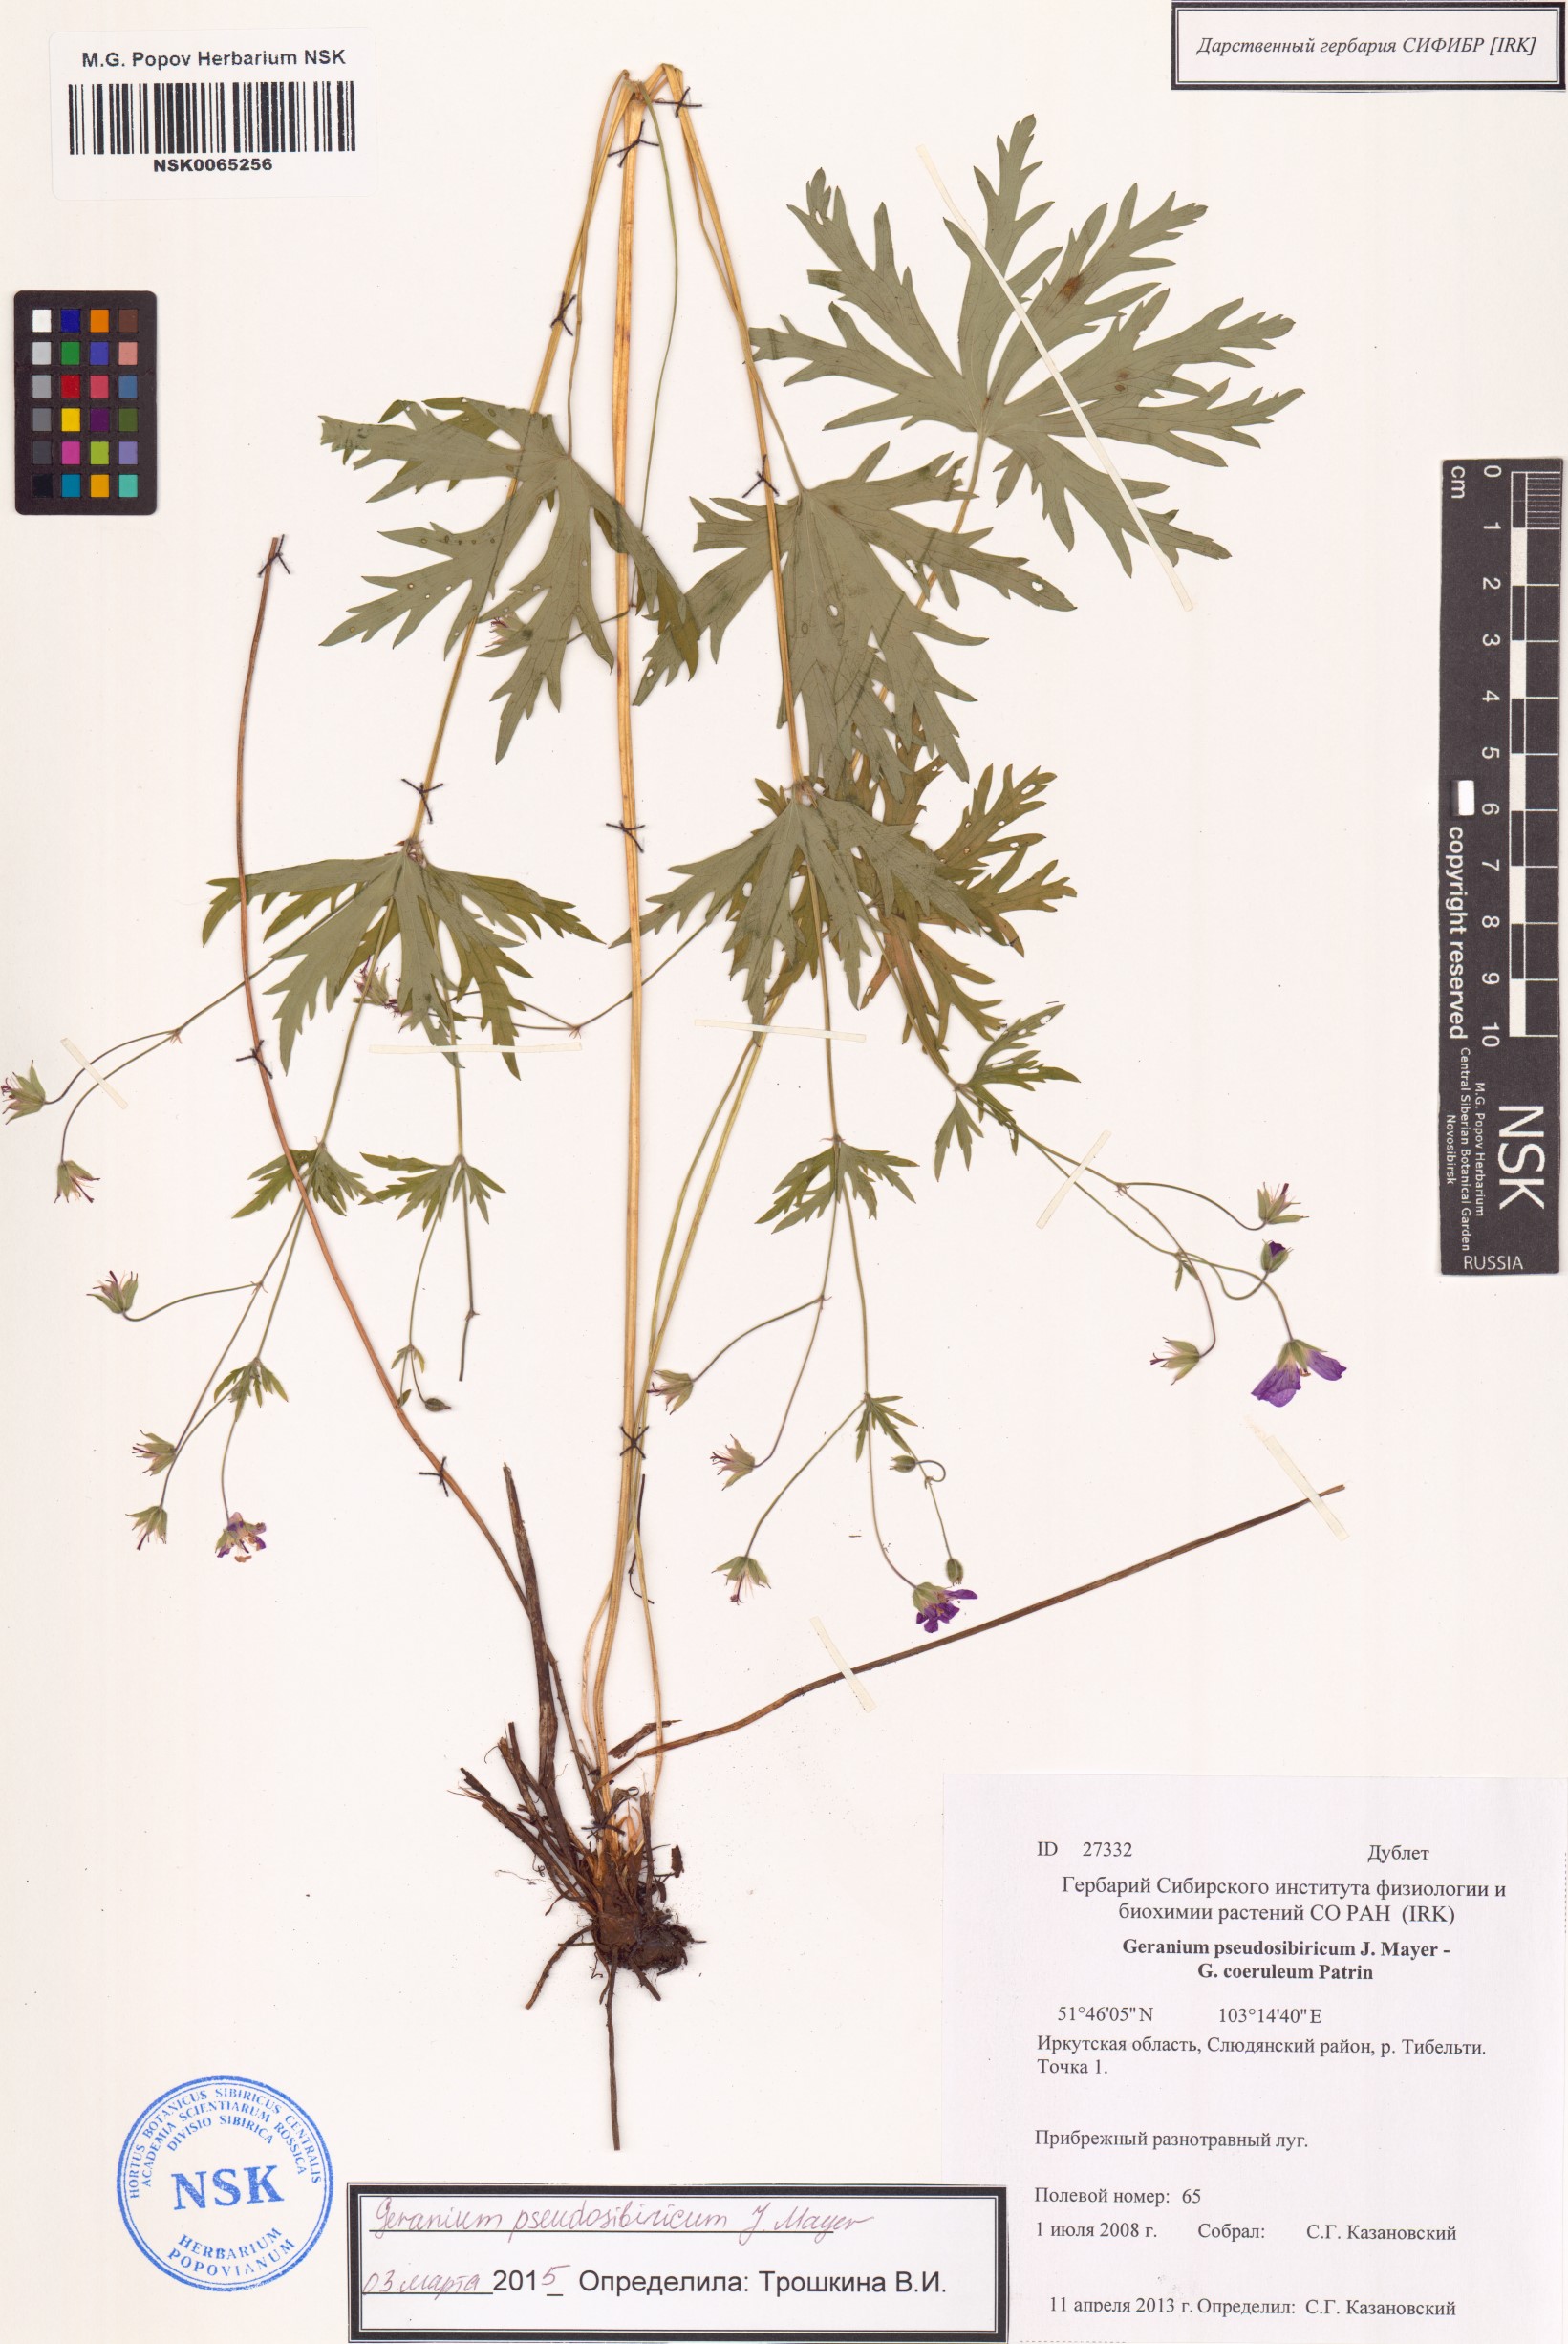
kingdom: Plantae
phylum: Tracheophyta
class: Magnoliopsida
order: Geraniales
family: Geraniaceae
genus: Geranium
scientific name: Geranium pseudosibiricum
